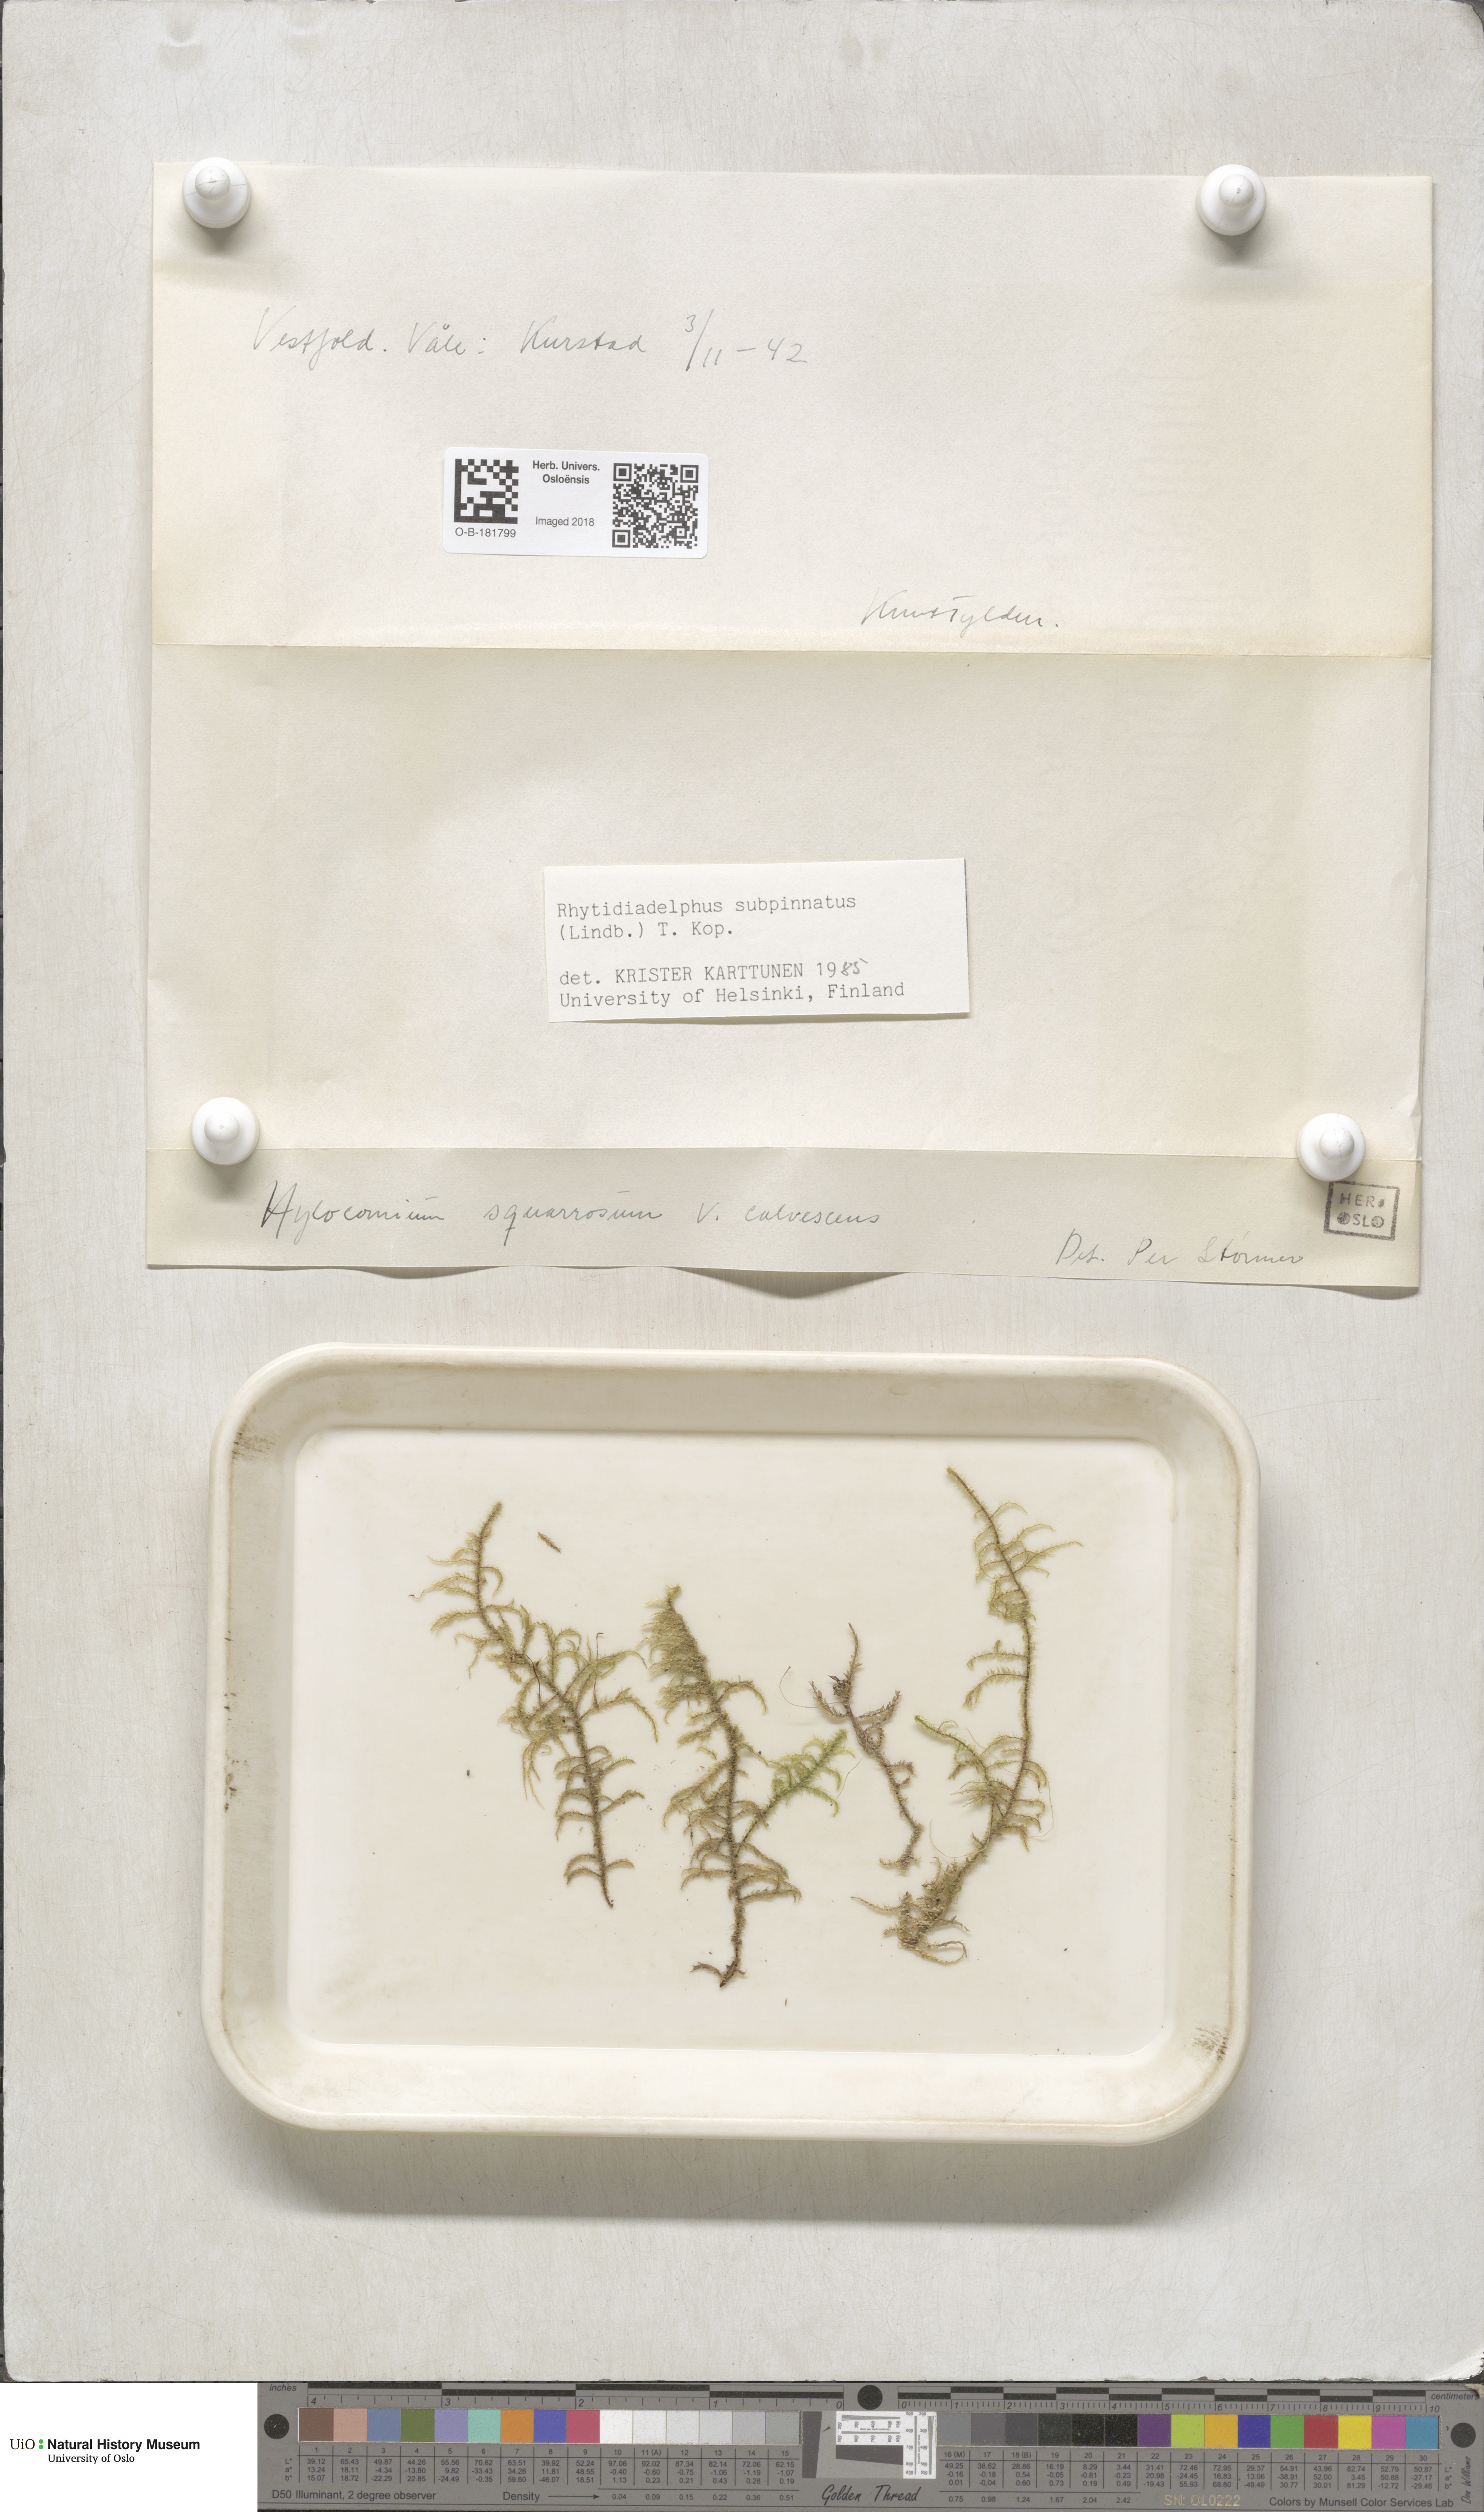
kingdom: Plantae
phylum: Bryophyta
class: Bryopsida
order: Hypnales
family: Hylocomiaceae
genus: Rhytidiadelphus
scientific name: Rhytidiadelphus subpinnatus
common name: Subpinnate gooseneck moss
